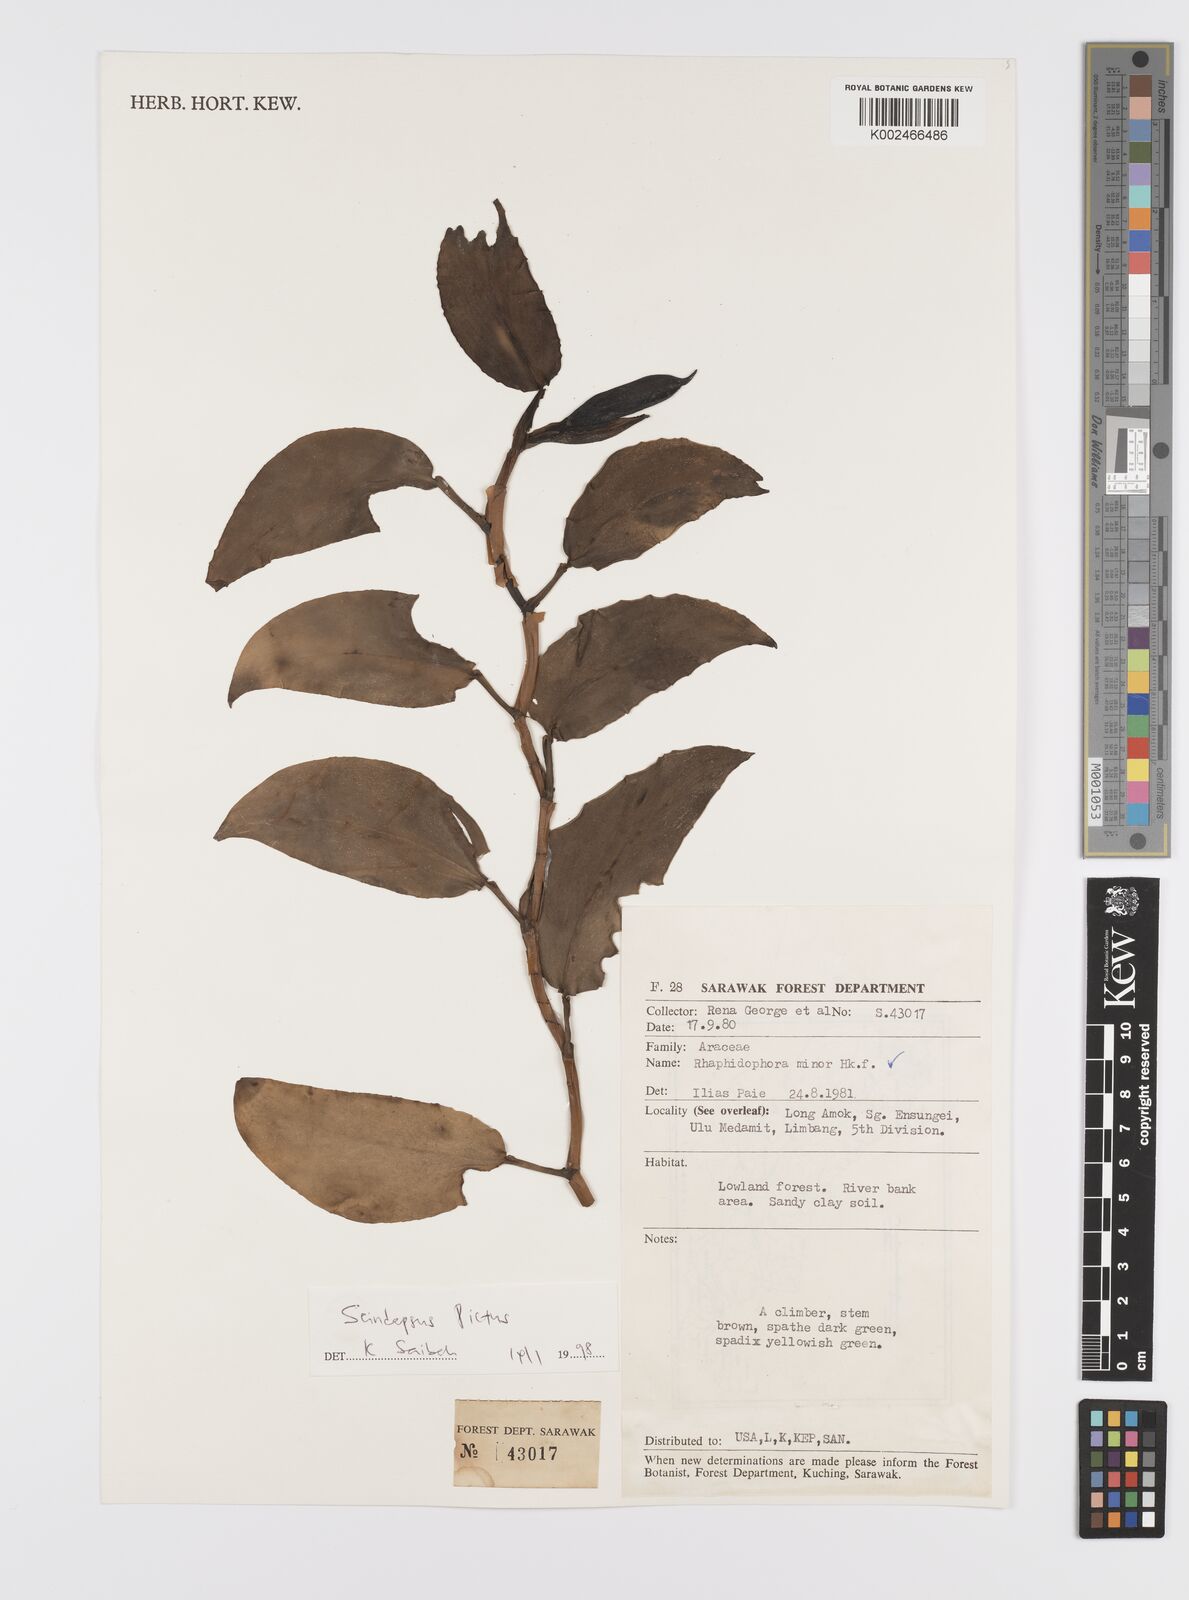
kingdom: Plantae
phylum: Tracheophyta
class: Liliopsida
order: Alismatales
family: Araceae
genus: Scindapsus
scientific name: Scindapsus pictus
